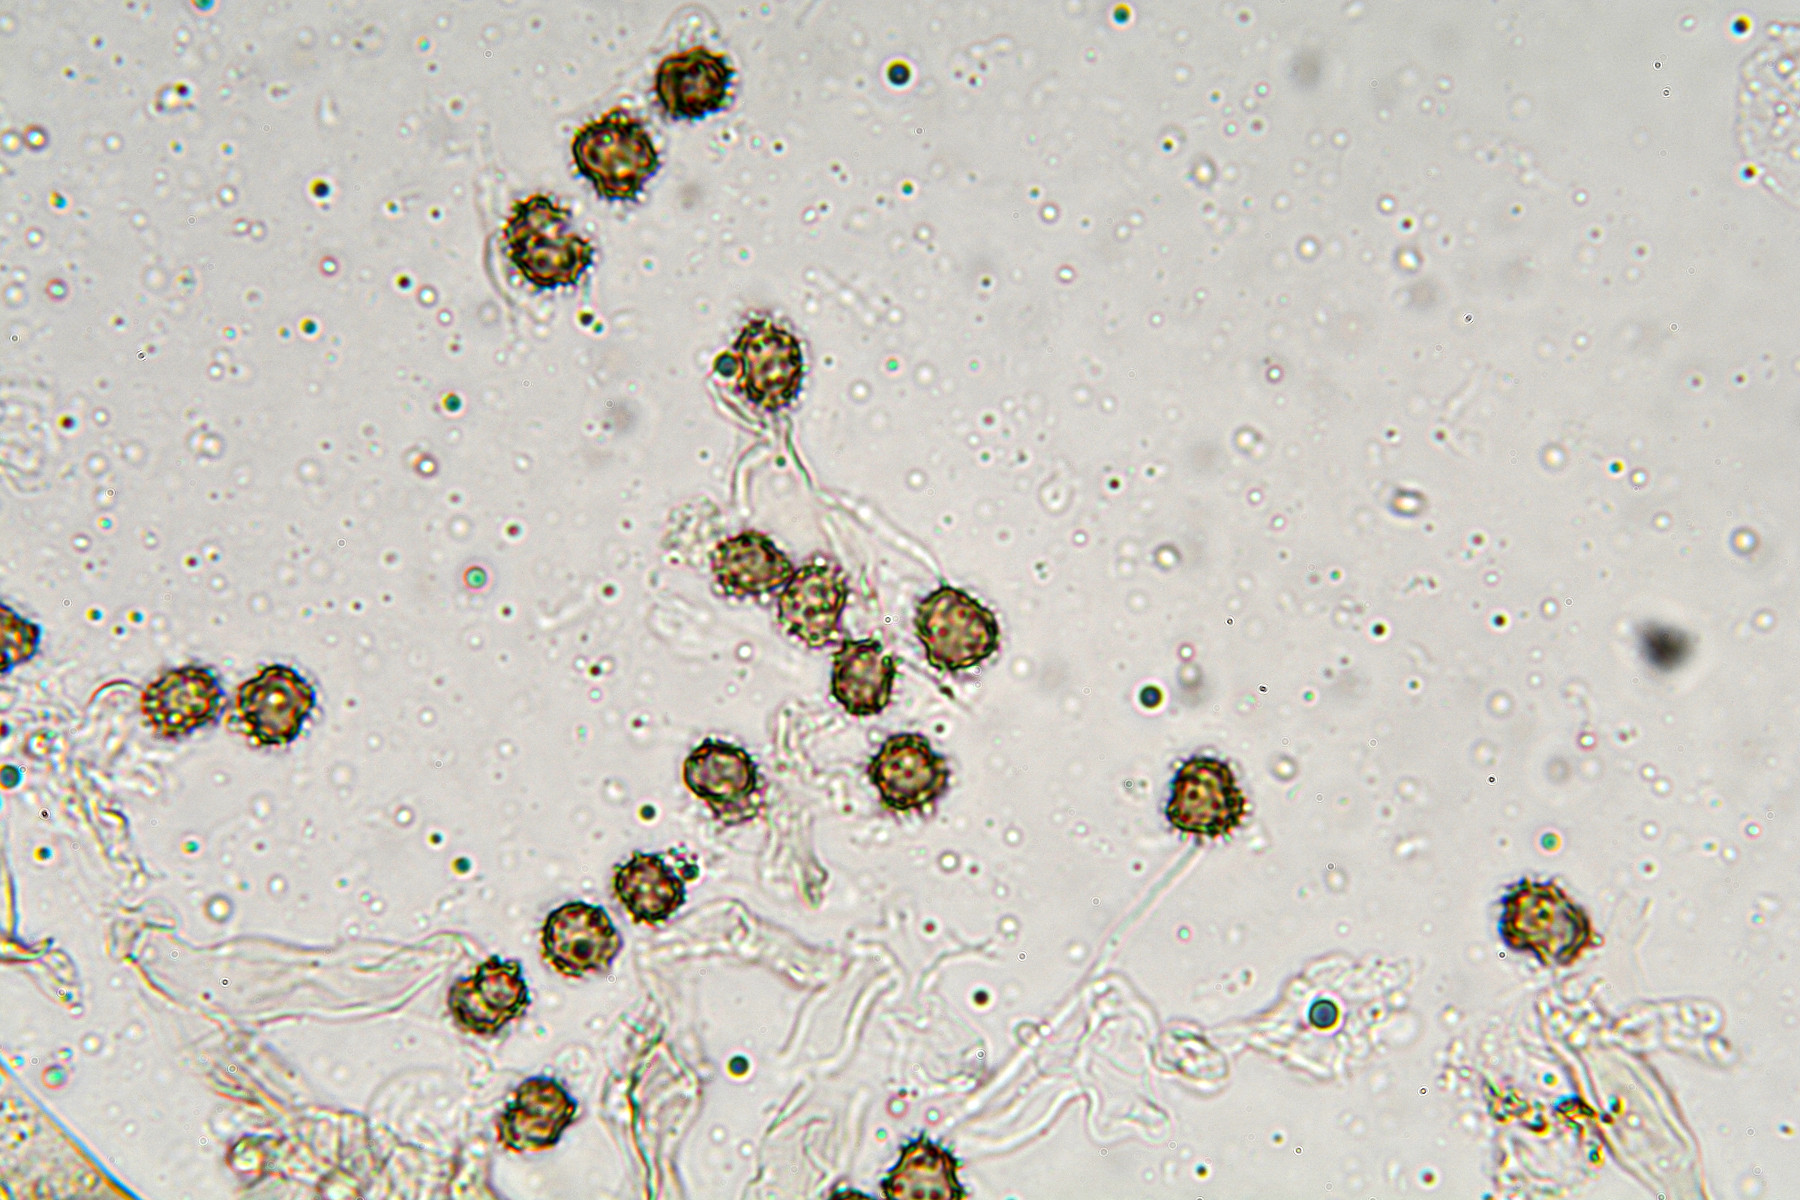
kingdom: Fungi
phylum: Basidiomycota
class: Agaricomycetes
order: Thelephorales
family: Thelephoraceae
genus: Tomentella
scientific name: Tomentella asperula
